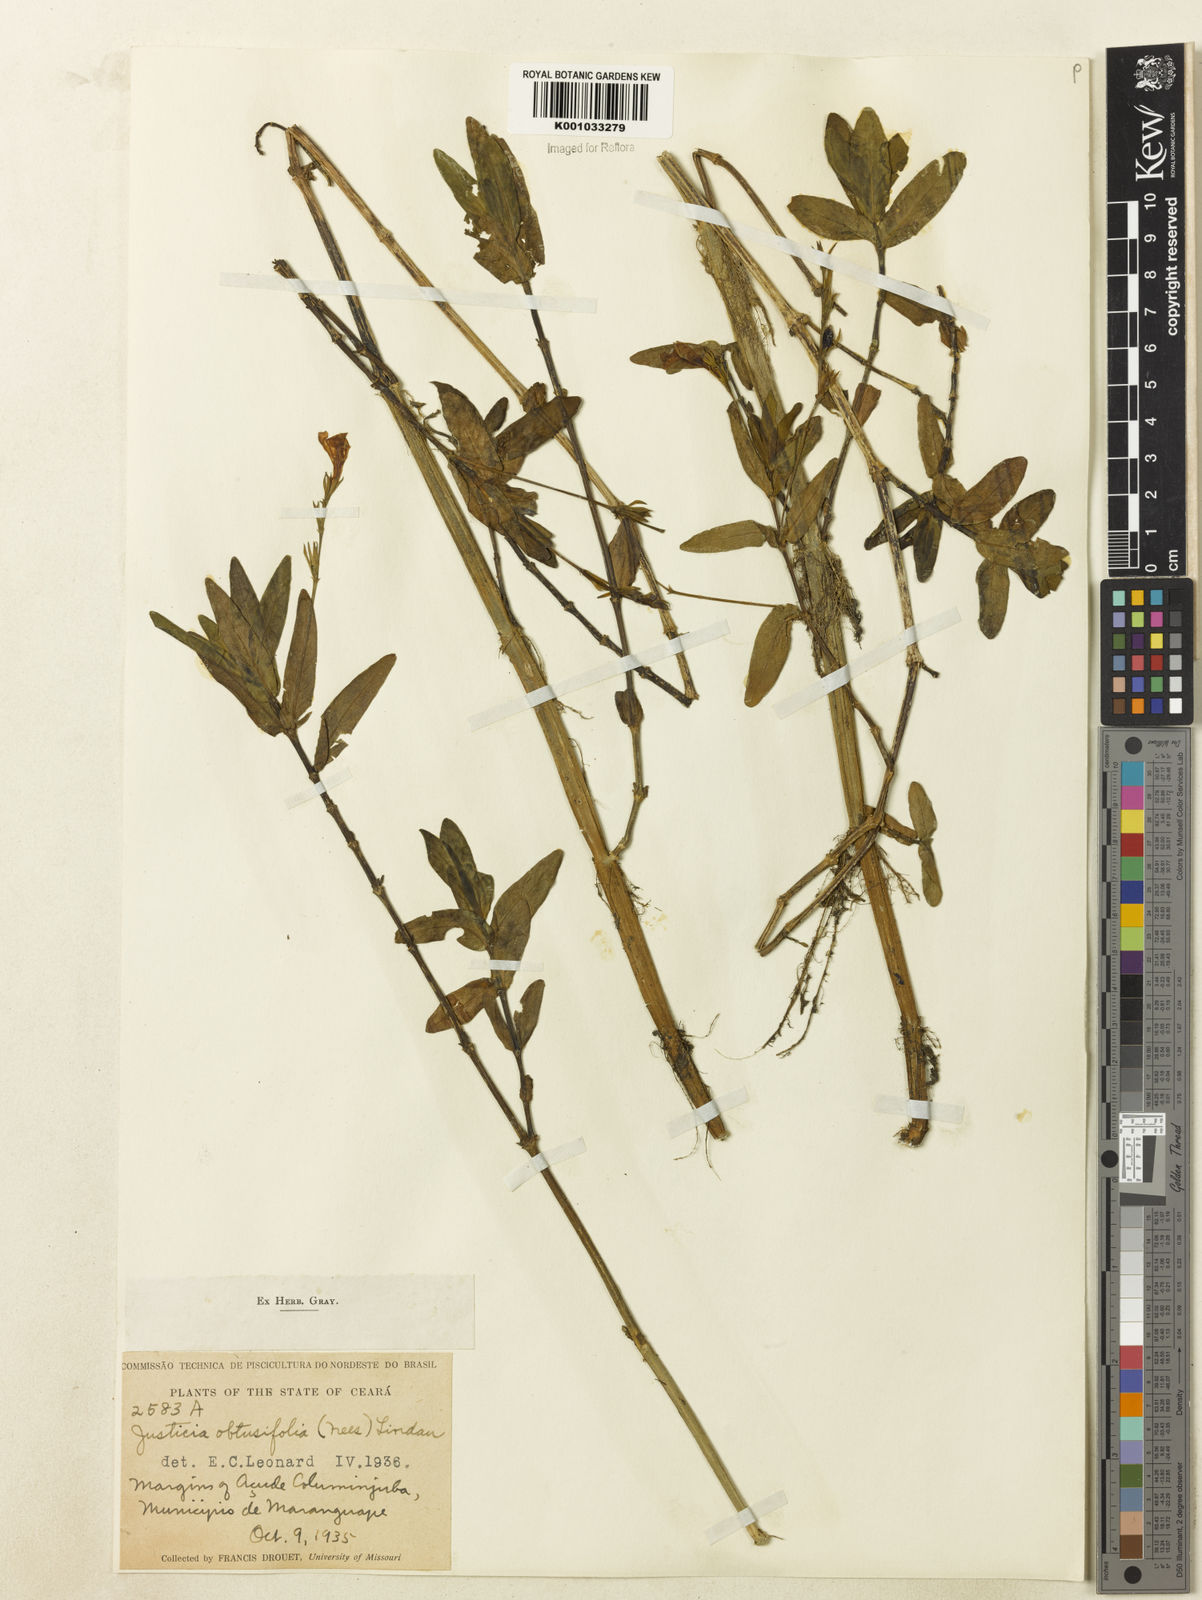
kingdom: Plantae
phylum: Tracheophyta
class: Magnoliopsida
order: Lamiales
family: Acanthaceae
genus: Dianthera
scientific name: Dianthera laevilinguis
